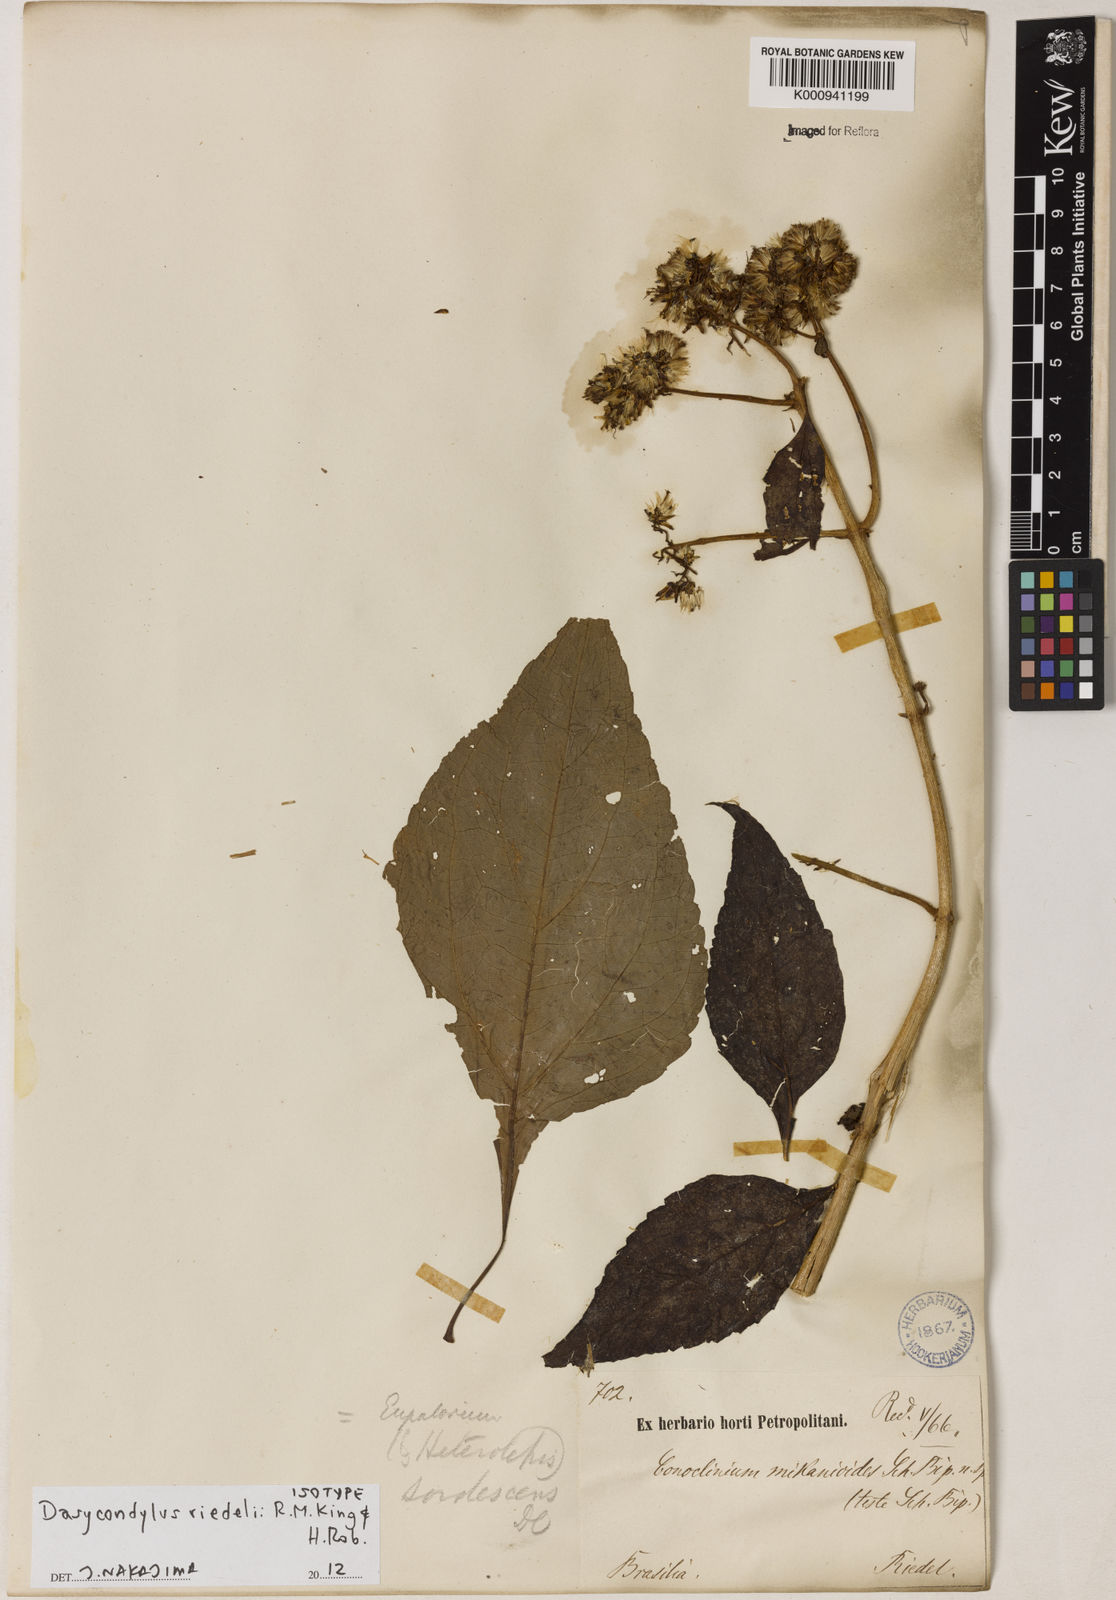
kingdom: Plantae
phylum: Tracheophyta
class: Magnoliopsida
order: Asterales
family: Asteraceae
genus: Dasycondylus
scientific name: Dasycondylus riedelii
